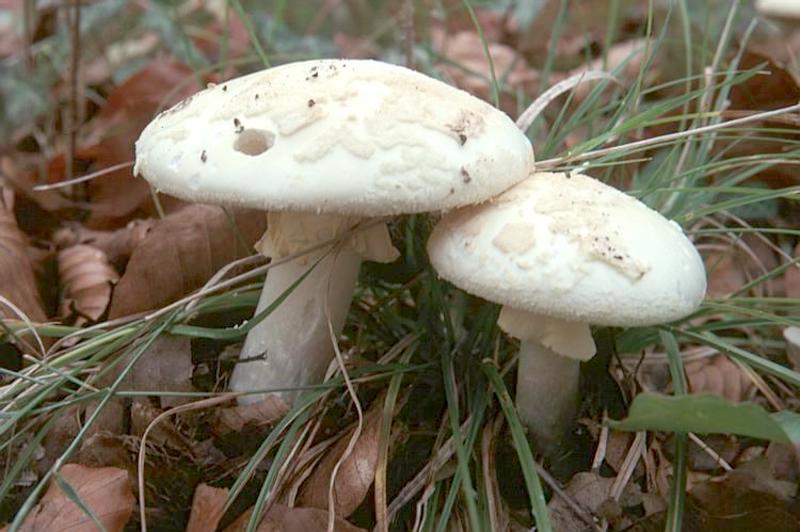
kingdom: Fungi
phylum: Basidiomycota
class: Agaricomycetes
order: Agaricales
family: Amanitaceae
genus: Amanita
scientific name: Amanita citrina
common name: False death-cap
